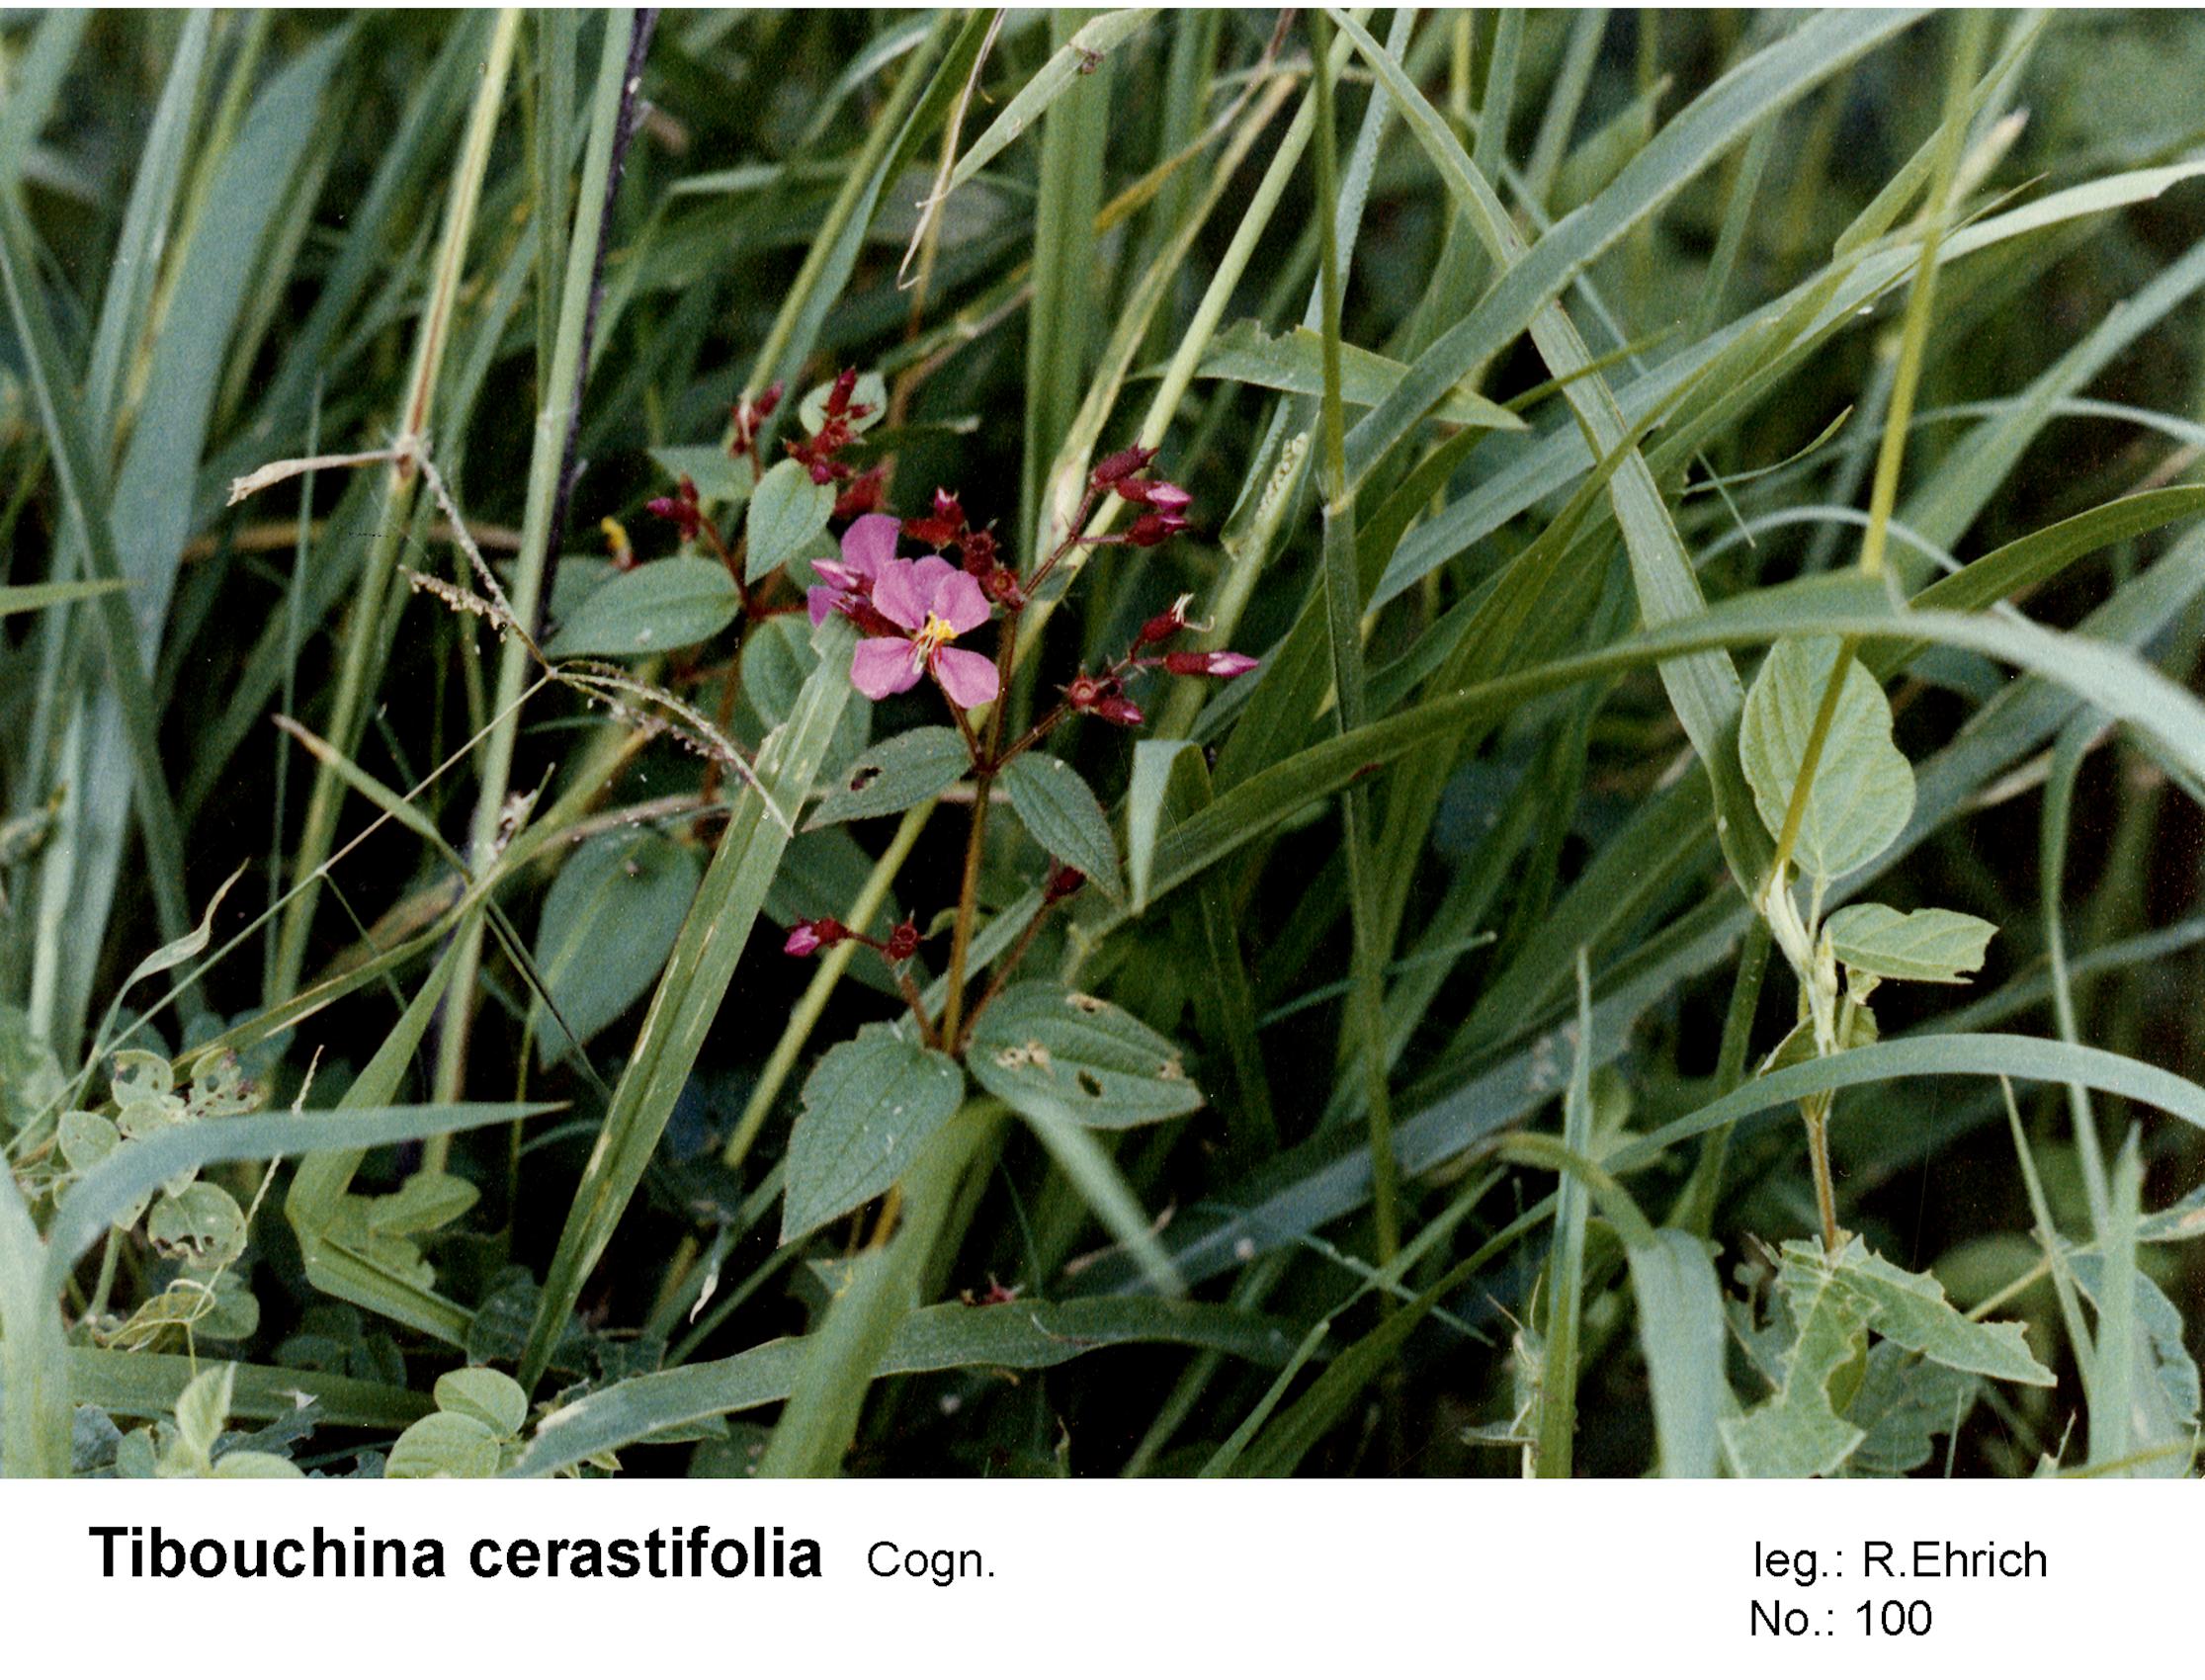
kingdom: Plantae
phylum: Tracheophyta
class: Magnoliopsida
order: Myrtales
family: Melastomataceae
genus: Chaetogastra
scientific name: Chaetogastra cerastifolia
